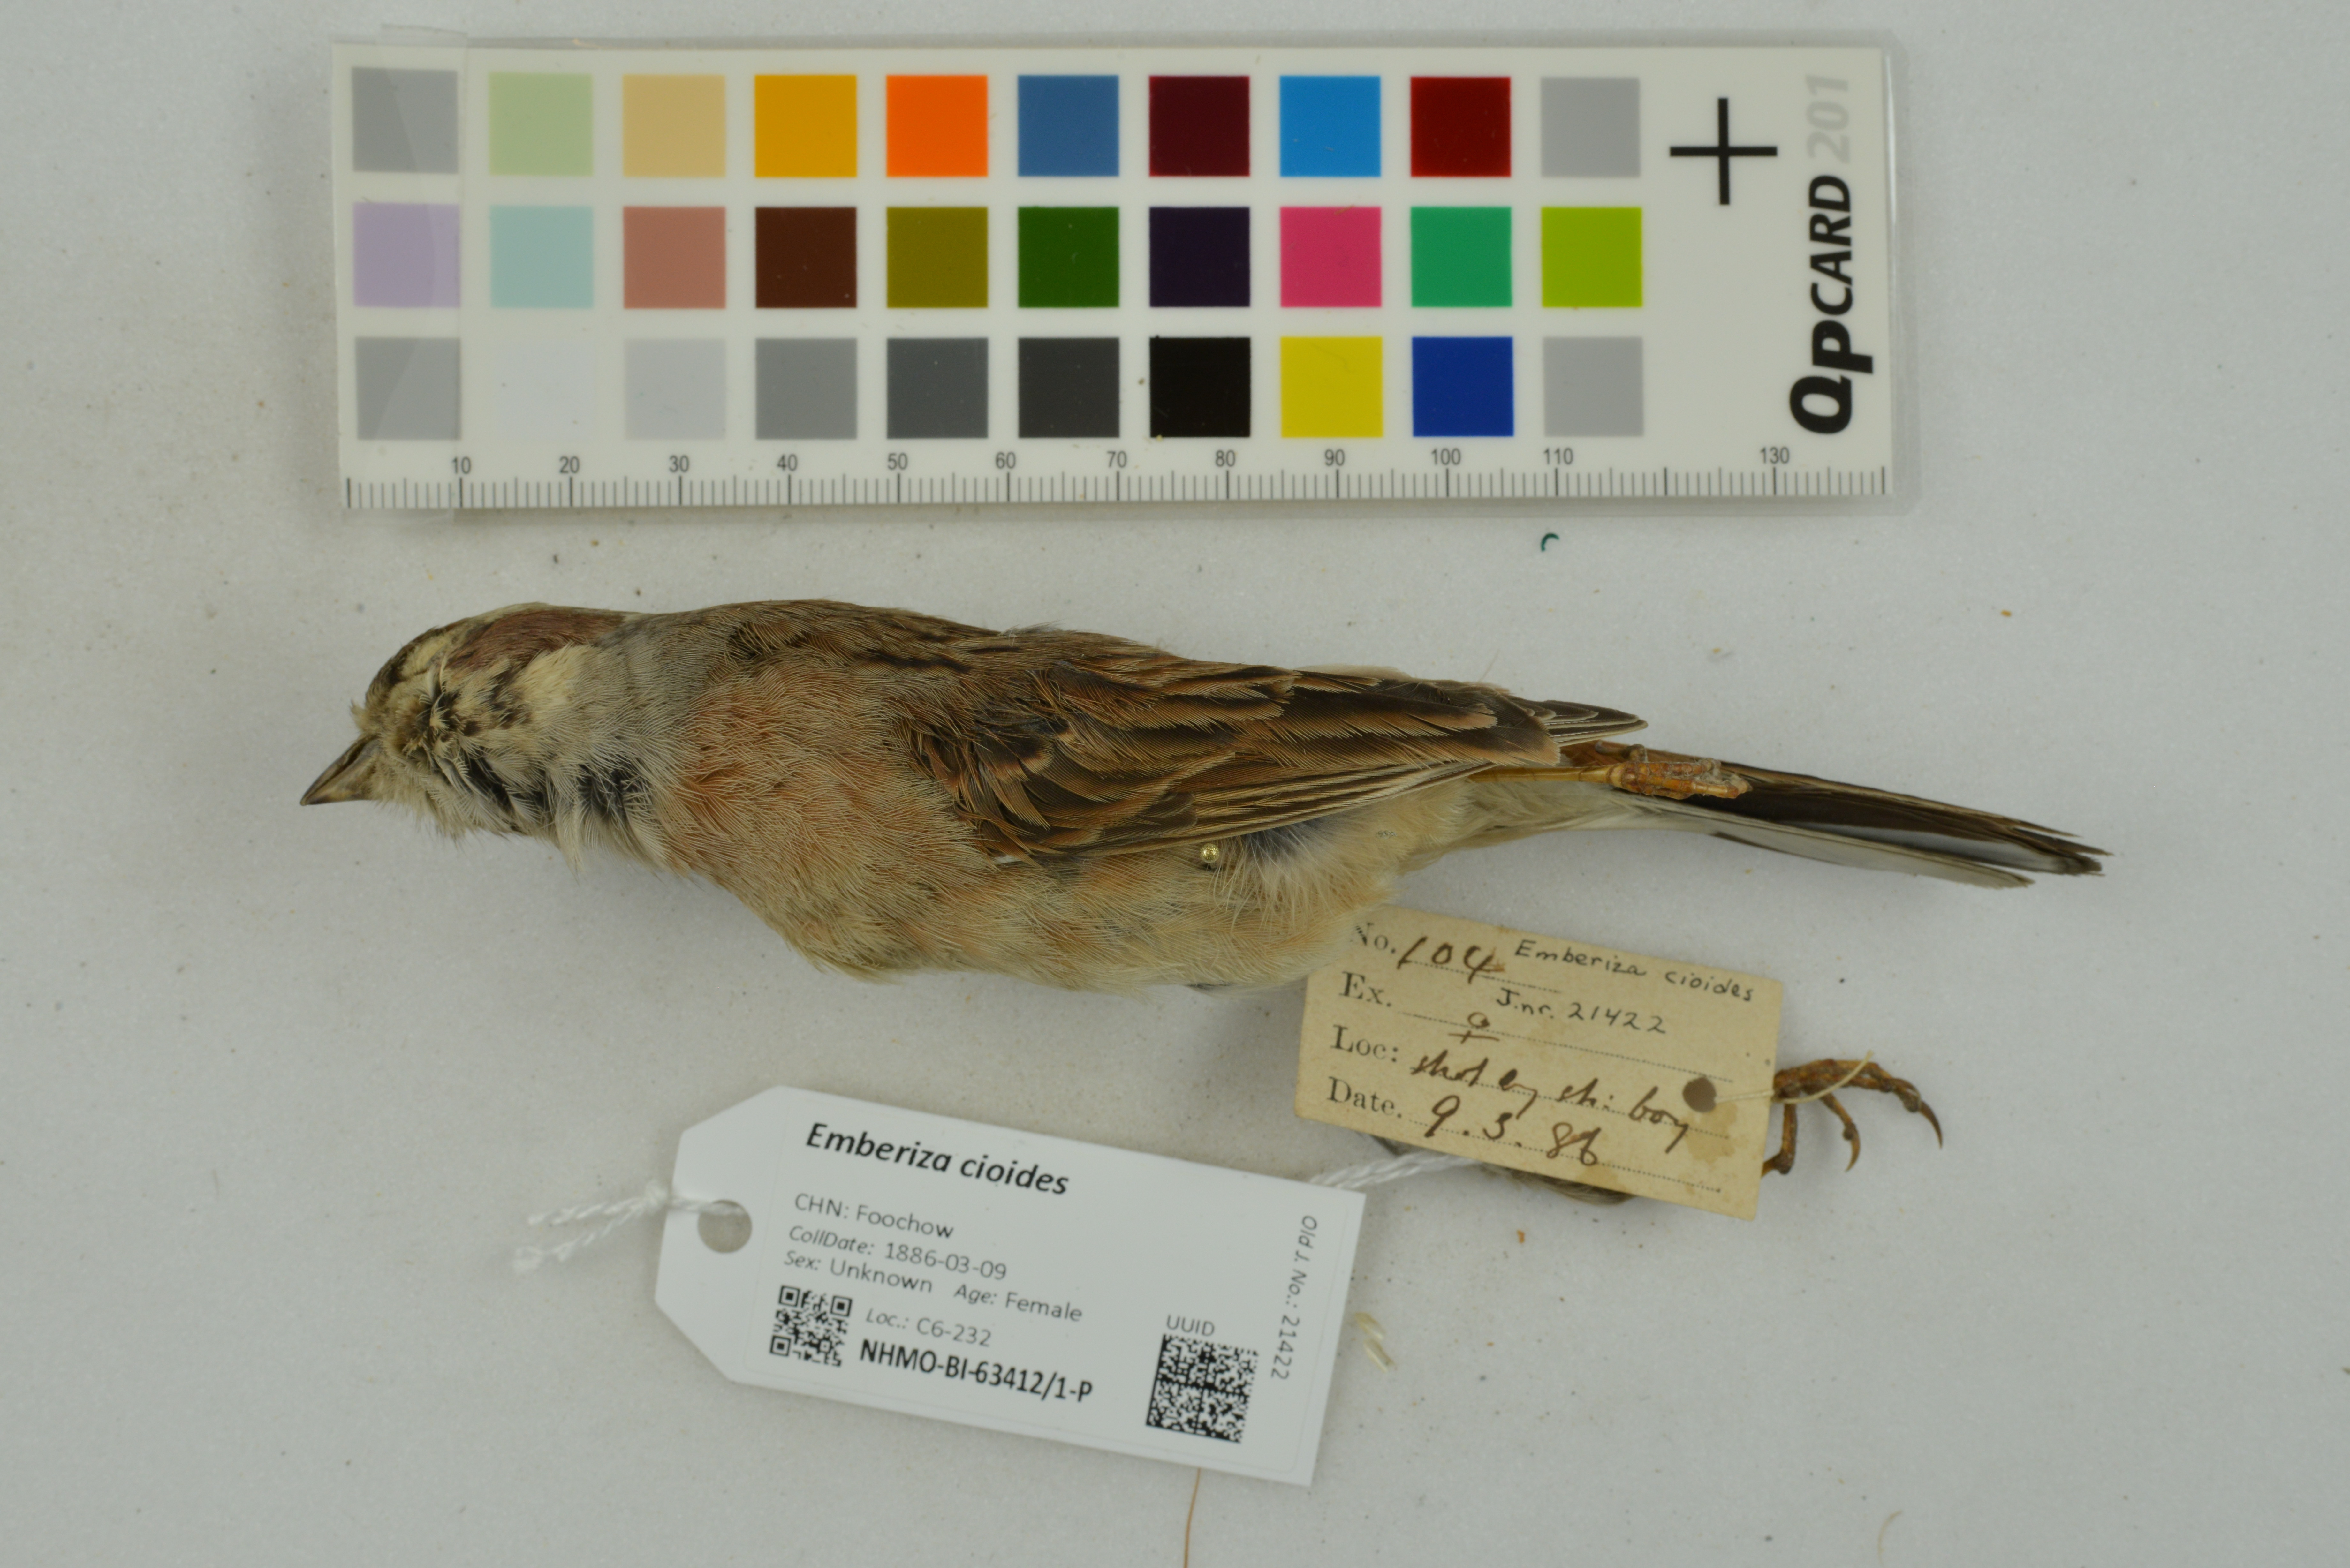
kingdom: Animalia
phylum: Chordata
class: Aves
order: Passeriformes
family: Emberizidae
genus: Emberiza
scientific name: Emberiza cioides
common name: Meadow bunting
